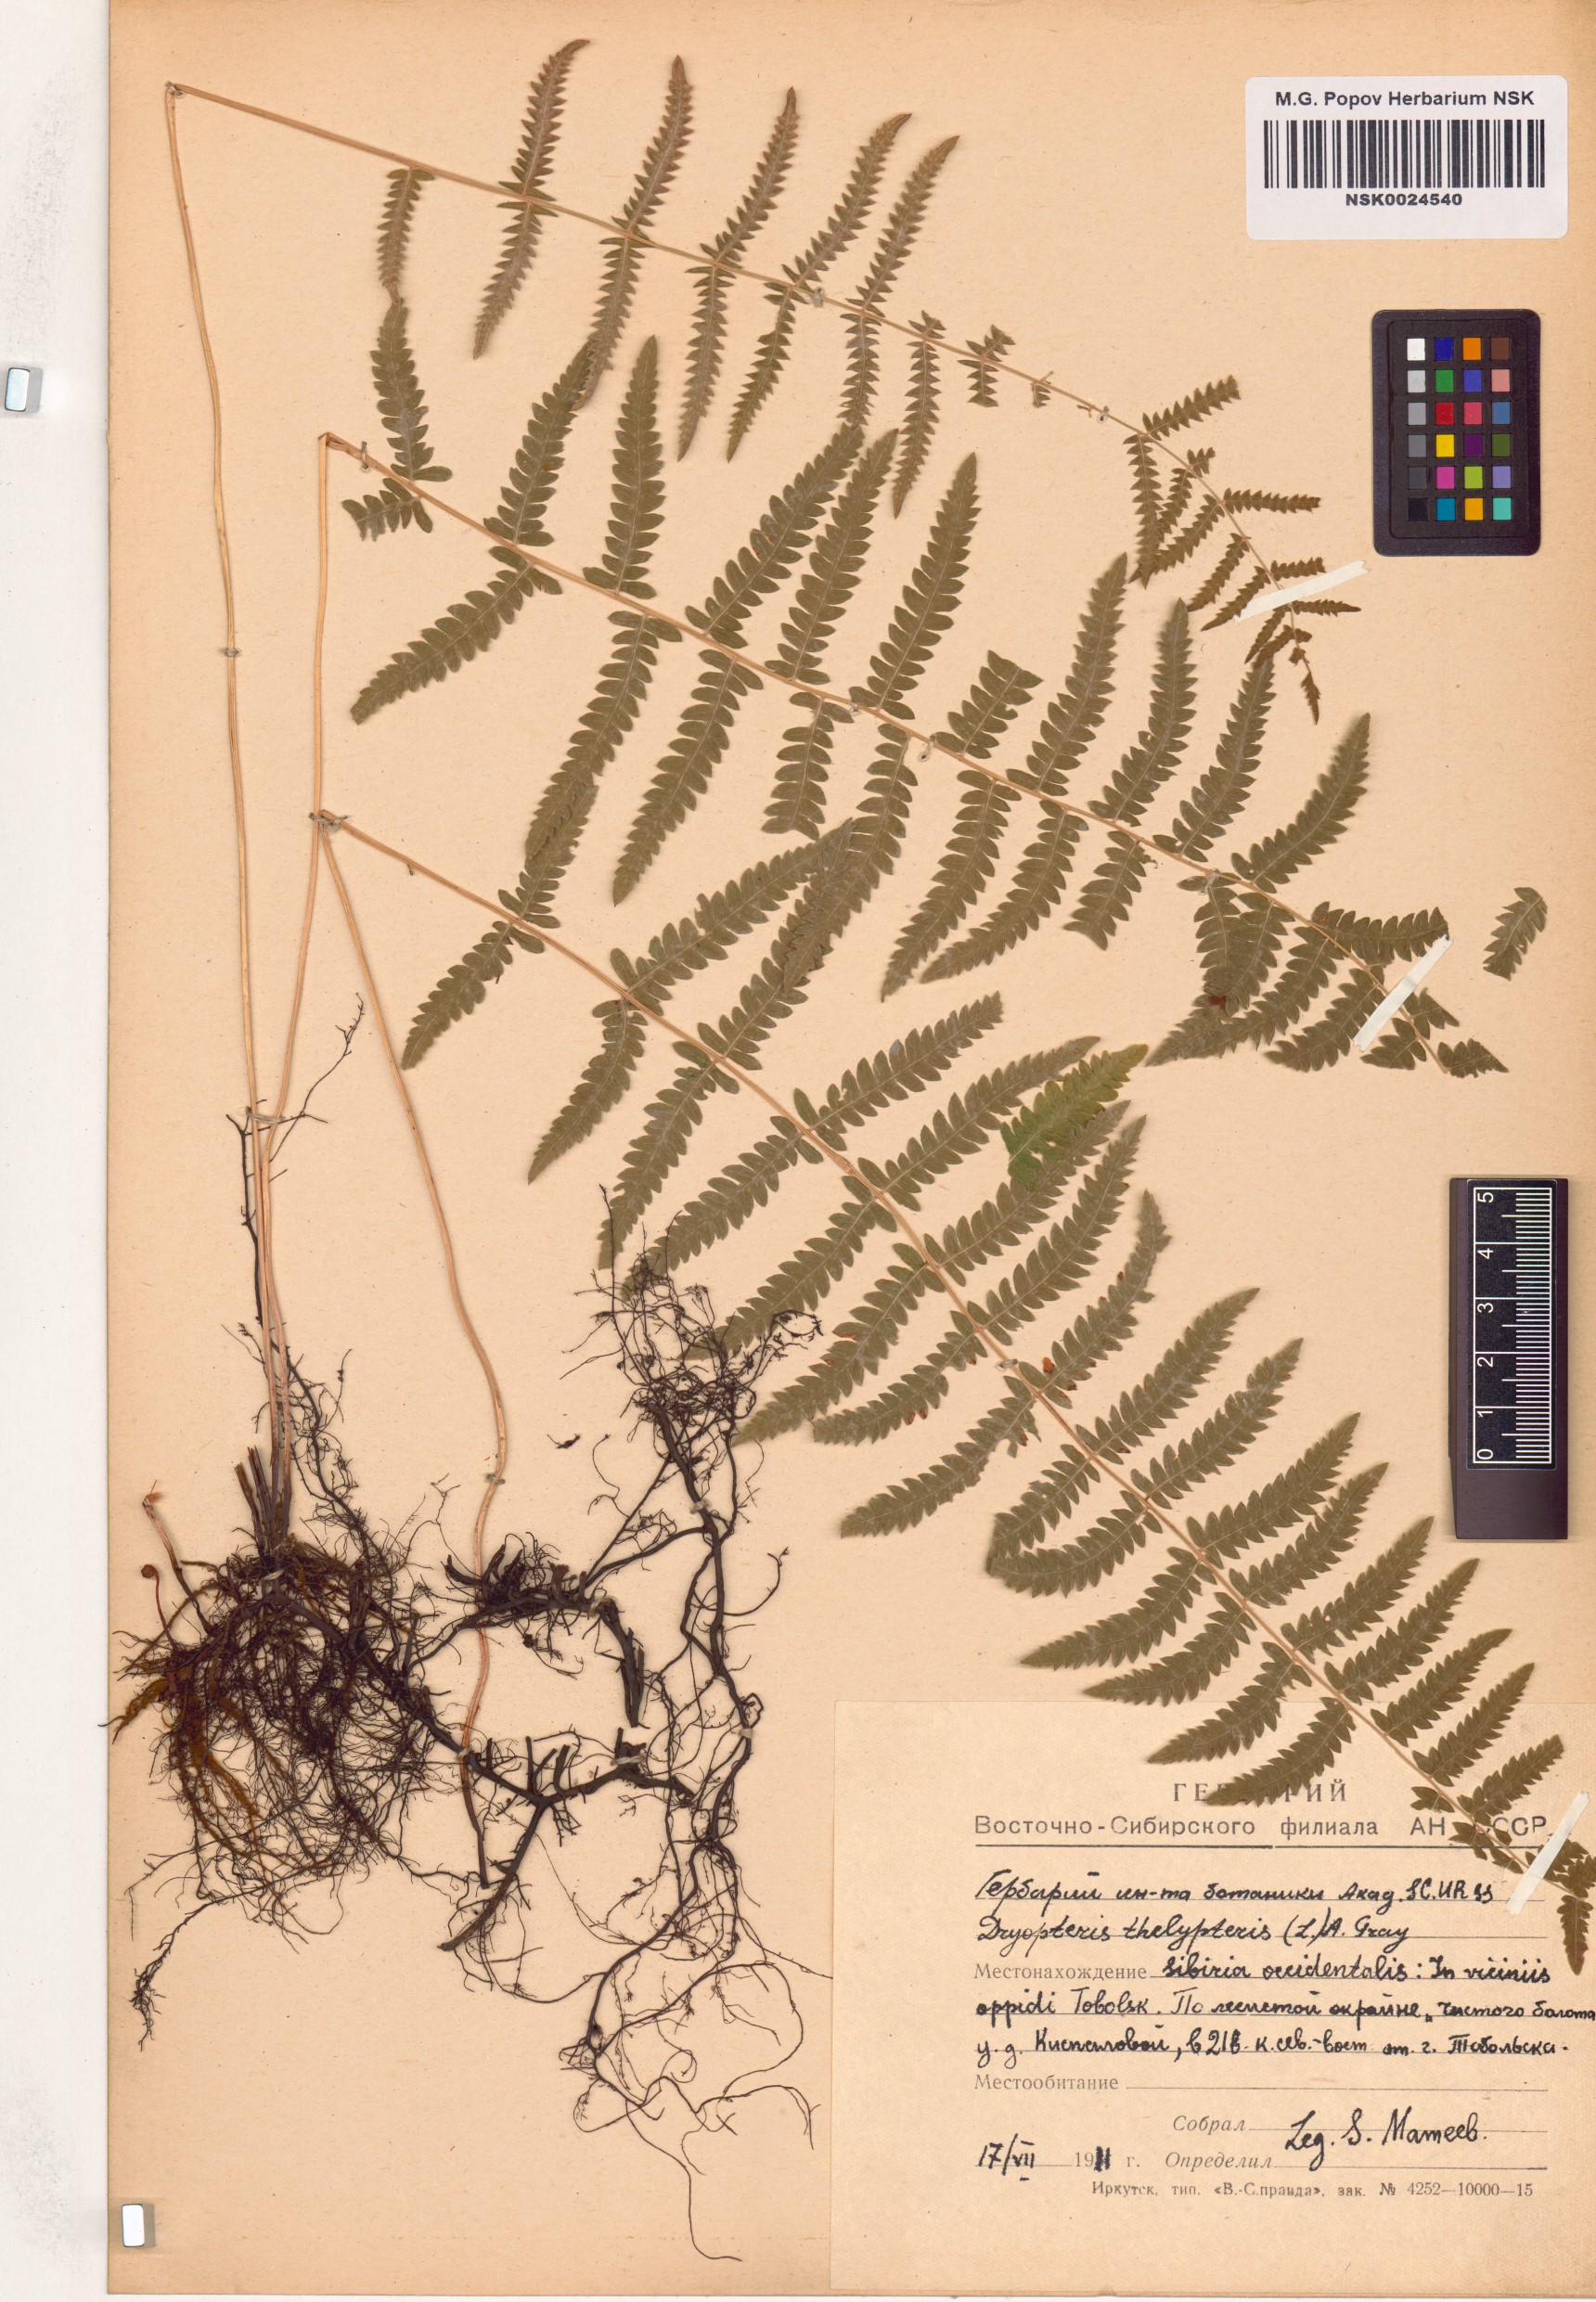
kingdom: Plantae
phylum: Tracheophyta
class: Polypodiopsida
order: Polypodiales
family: Thelypteridaceae
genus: Thelypteris
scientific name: Thelypteris palustris
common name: Marsh fern
